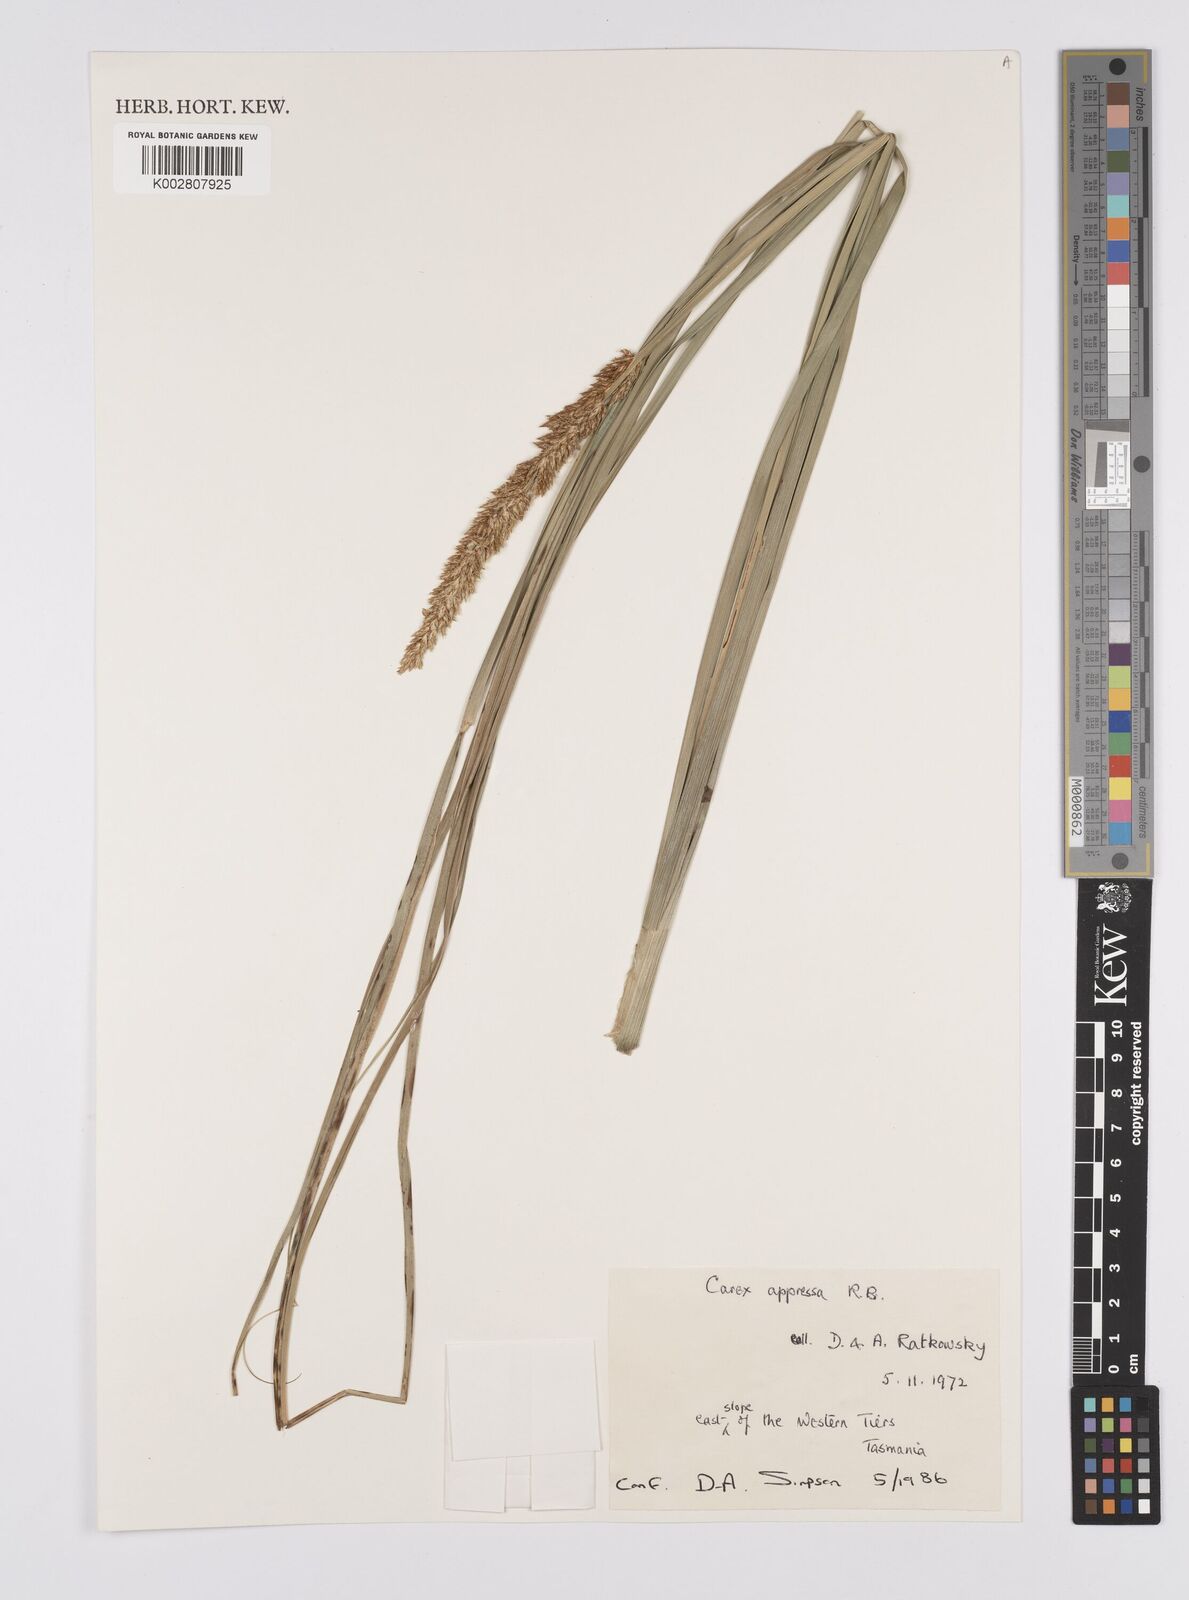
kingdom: Plantae
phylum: Tracheophyta
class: Liliopsida
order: Poales
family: Cyperaceae
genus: Carex
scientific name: Carex appressa
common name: Tussock sedge
